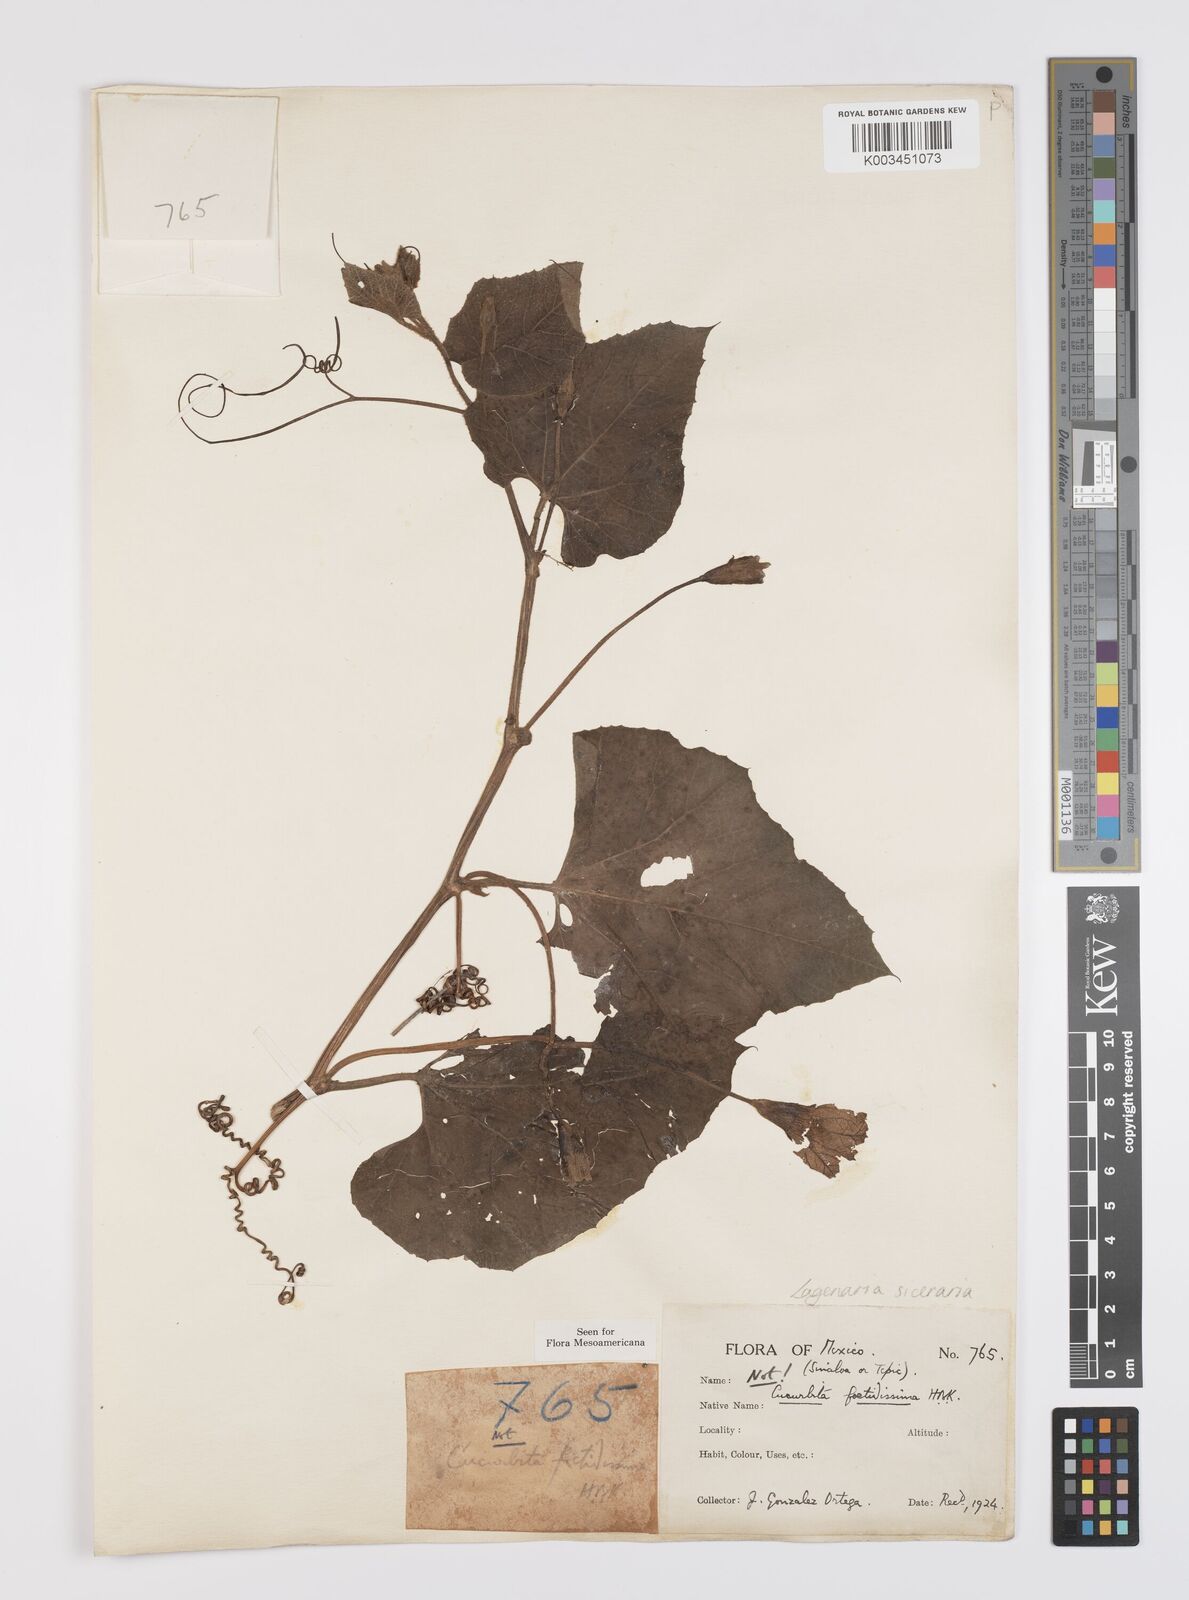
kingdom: Plantae
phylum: Tracheophyta
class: Magnoliopsida
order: Cucurbitales
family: Cucurbitaceae
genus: Lagenaria
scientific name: Lagenaria siceraria
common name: Bottle gourd
